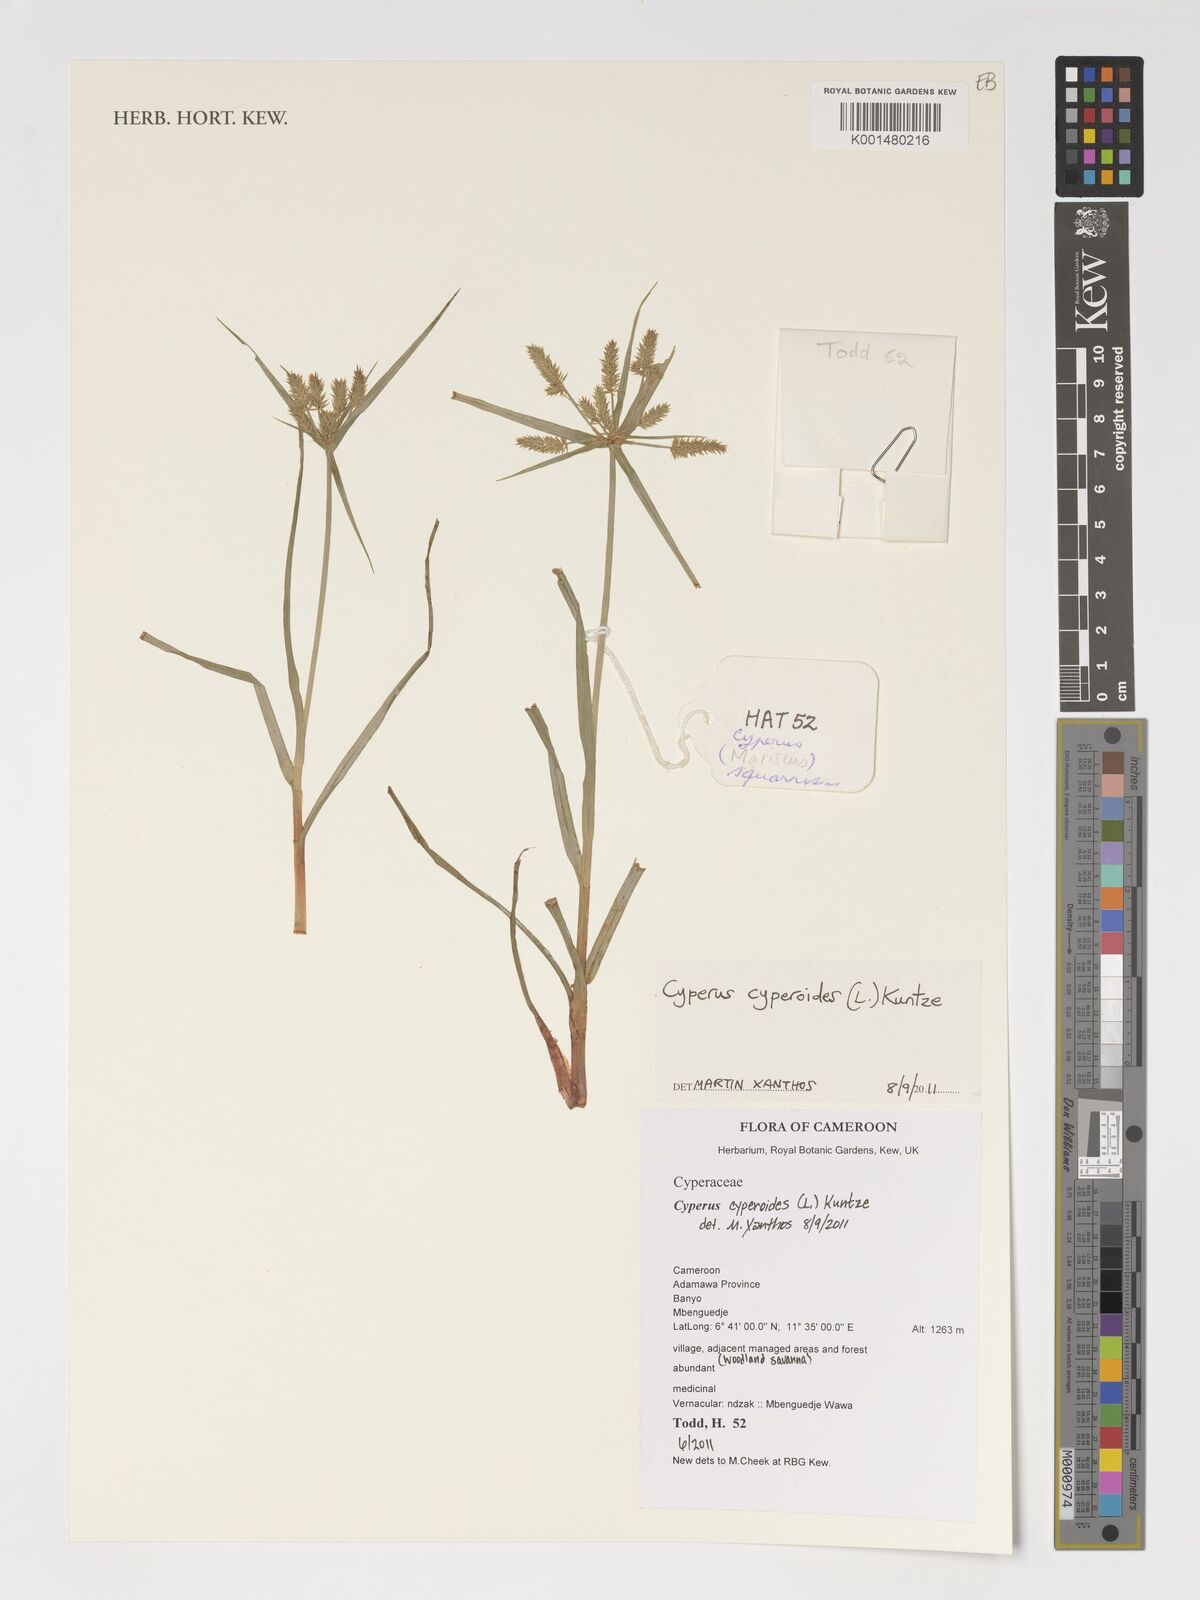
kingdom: Plantae
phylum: Tracheophyta
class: Liliopsida
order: Poales
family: Cyperaceae
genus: Cyperus
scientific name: Cyperus cyperoides
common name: Pacific island flat sedge
